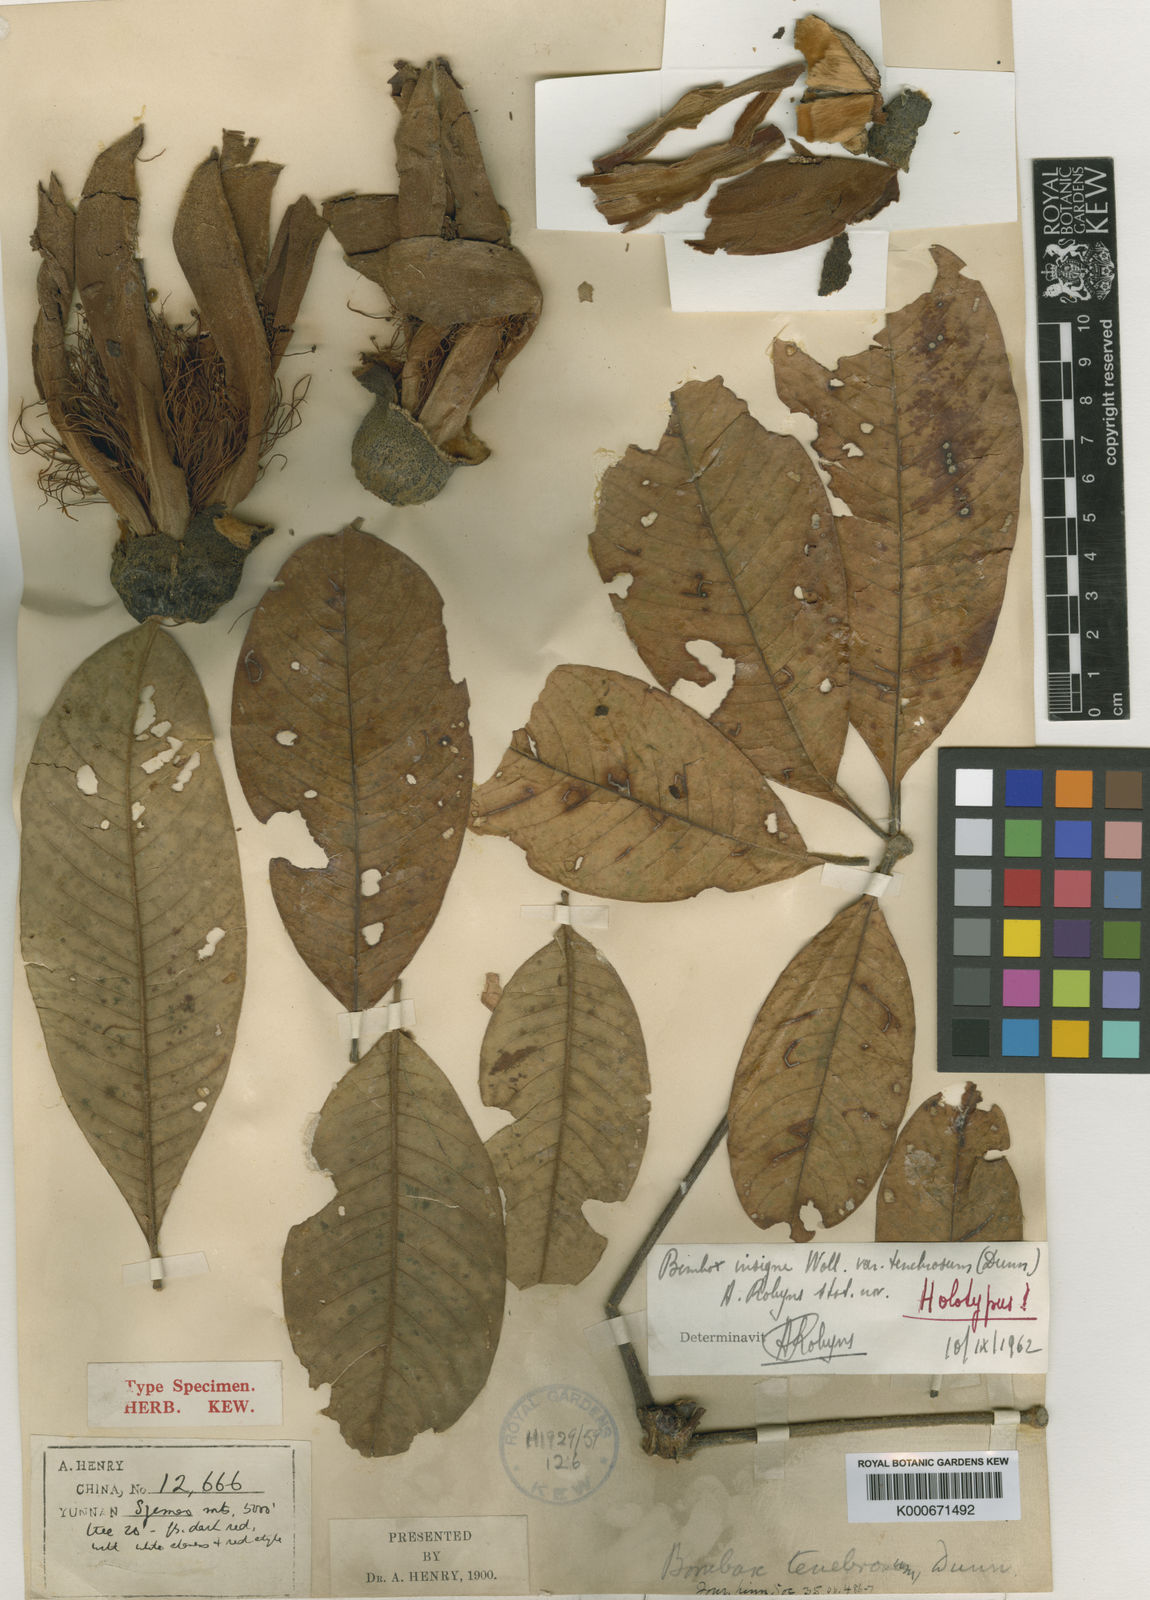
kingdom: Plantae
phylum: Tracheophyta
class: Magnoliopsida
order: Malvales
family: Malvaceae
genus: Bombax
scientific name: Bombax insigne
